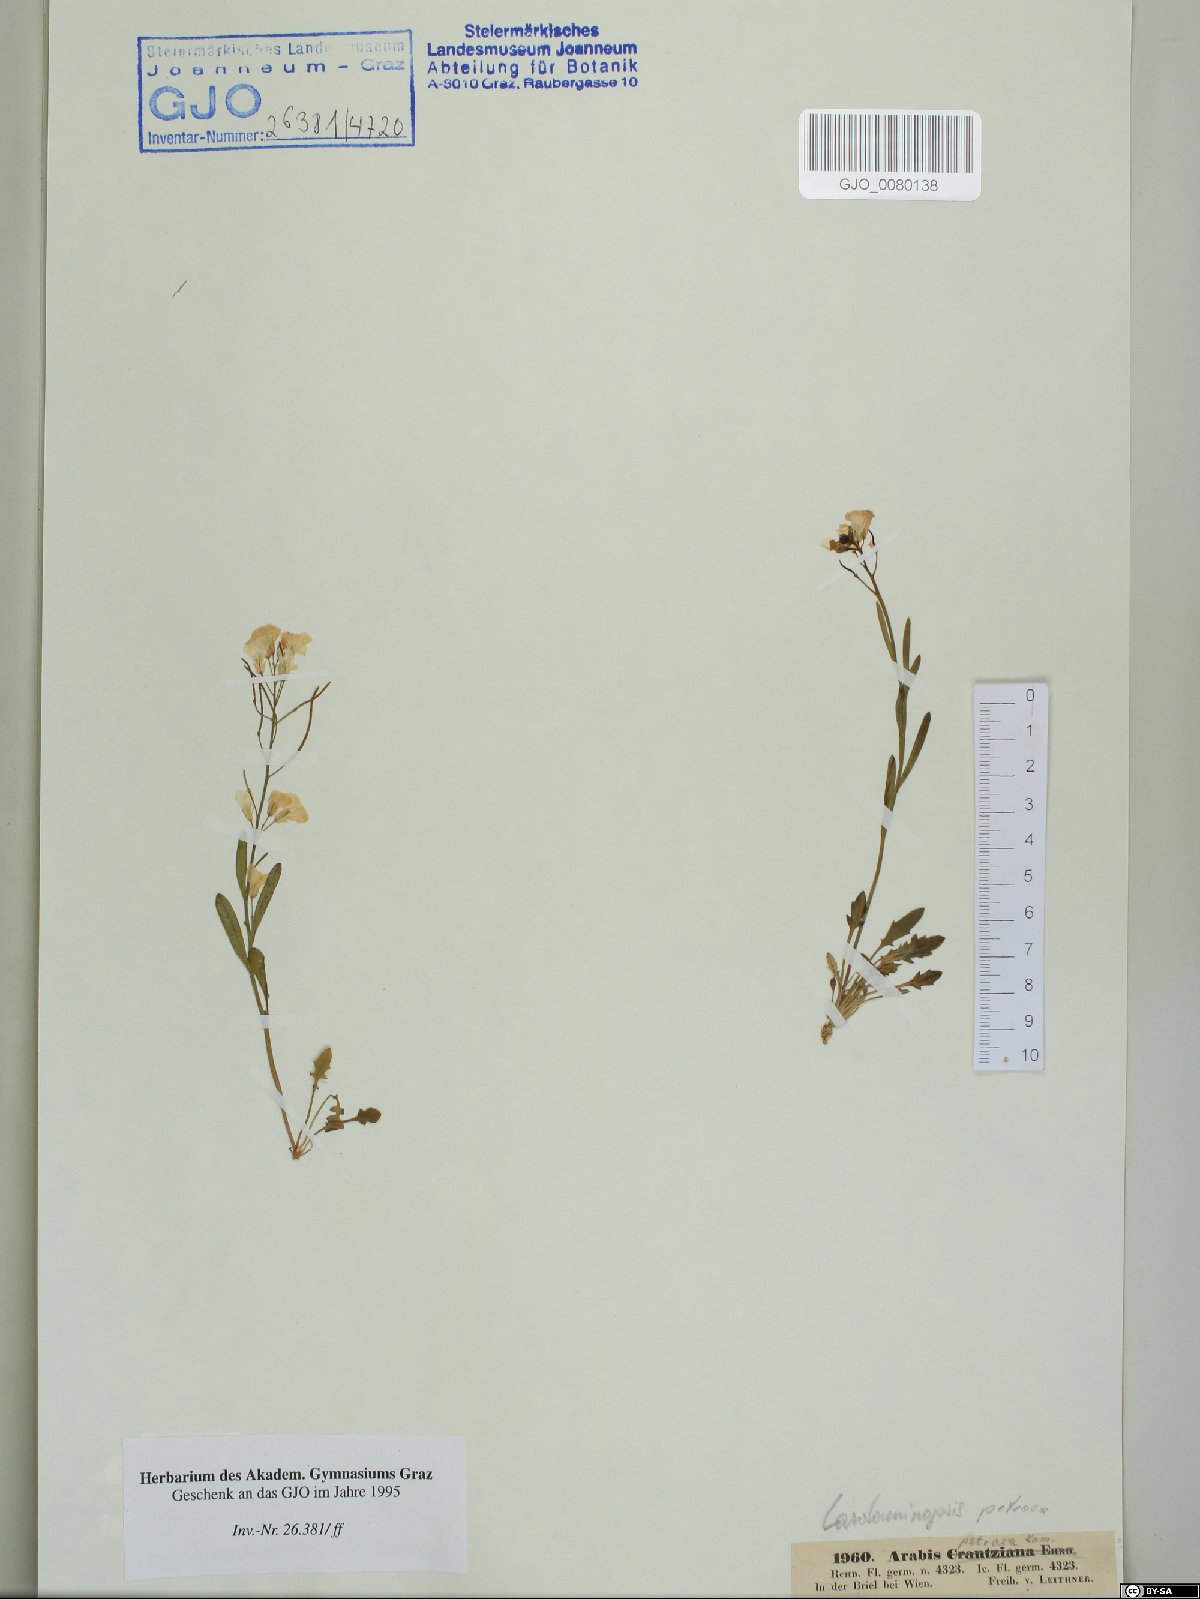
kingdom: Plantae
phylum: Tracheophyta
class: Magnoliopsida
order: Brassicales
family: Brassicaceae
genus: Arabidopsis
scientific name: Arabidopsis lyrata
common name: Lyrate rockcress
